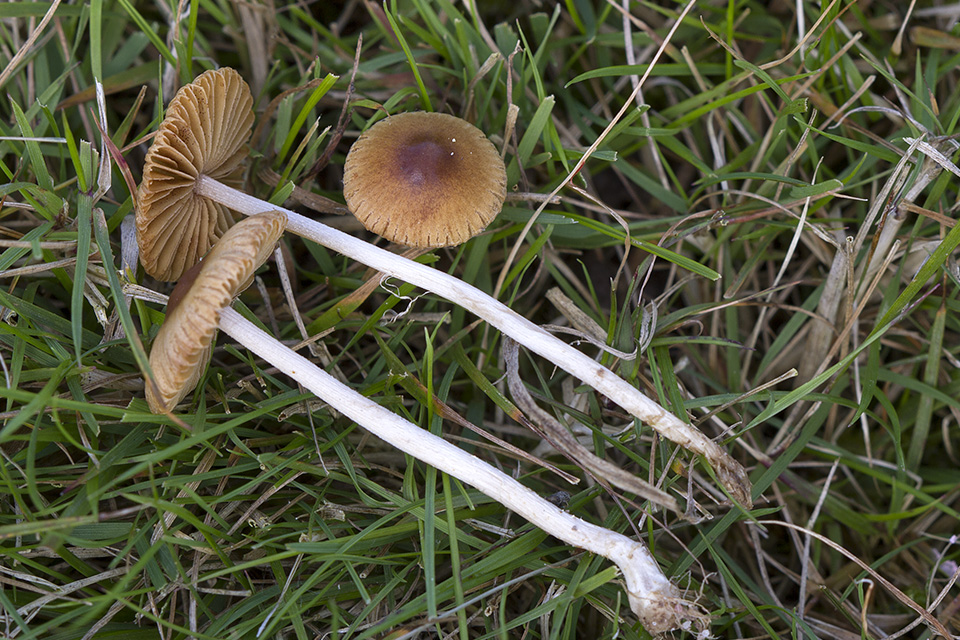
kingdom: Fungi
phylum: Basidiomycota
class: Agaricomycetes
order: Agaricales
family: Bolbitiaceae
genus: Pholiotina
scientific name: Pholiotina sulcata
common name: plisseret dansehat
